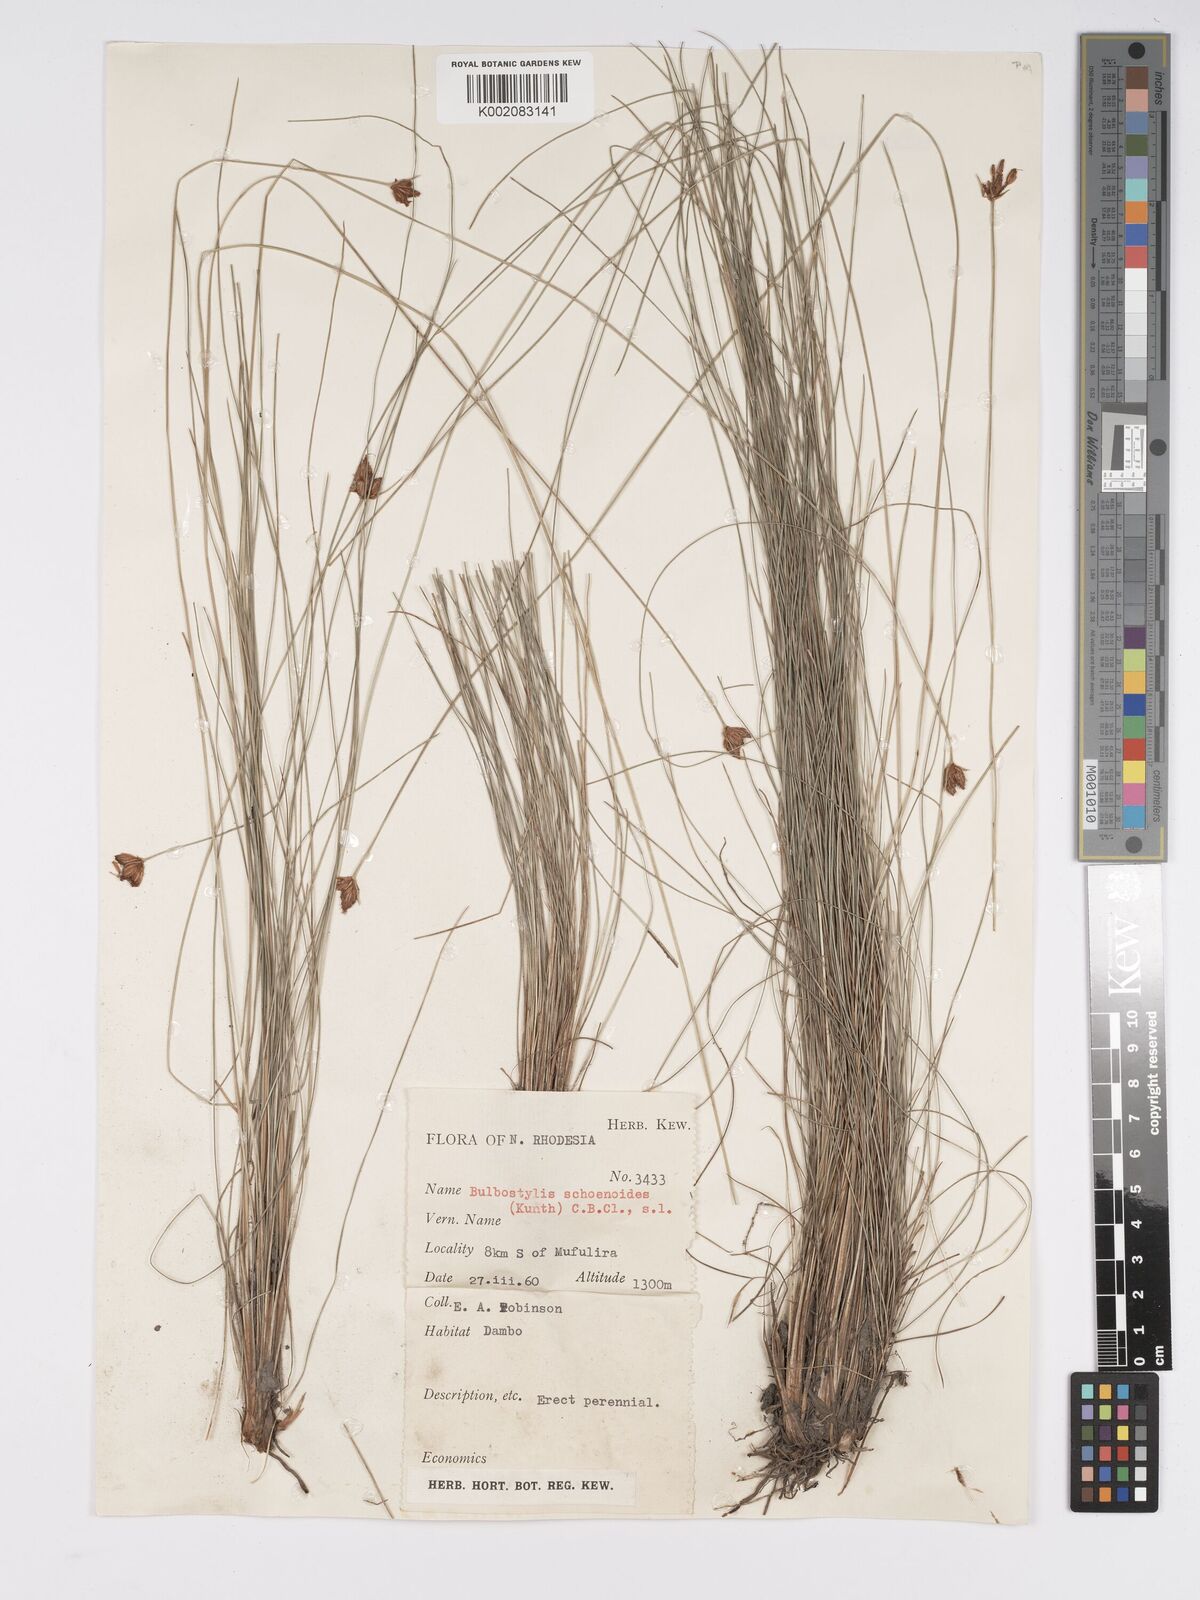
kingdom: Plantae
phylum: Tracheophyta
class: Liliopsida
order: Poales
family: Cyperaceae
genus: Bulbostylis
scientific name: Bulbostylis schoenoides
